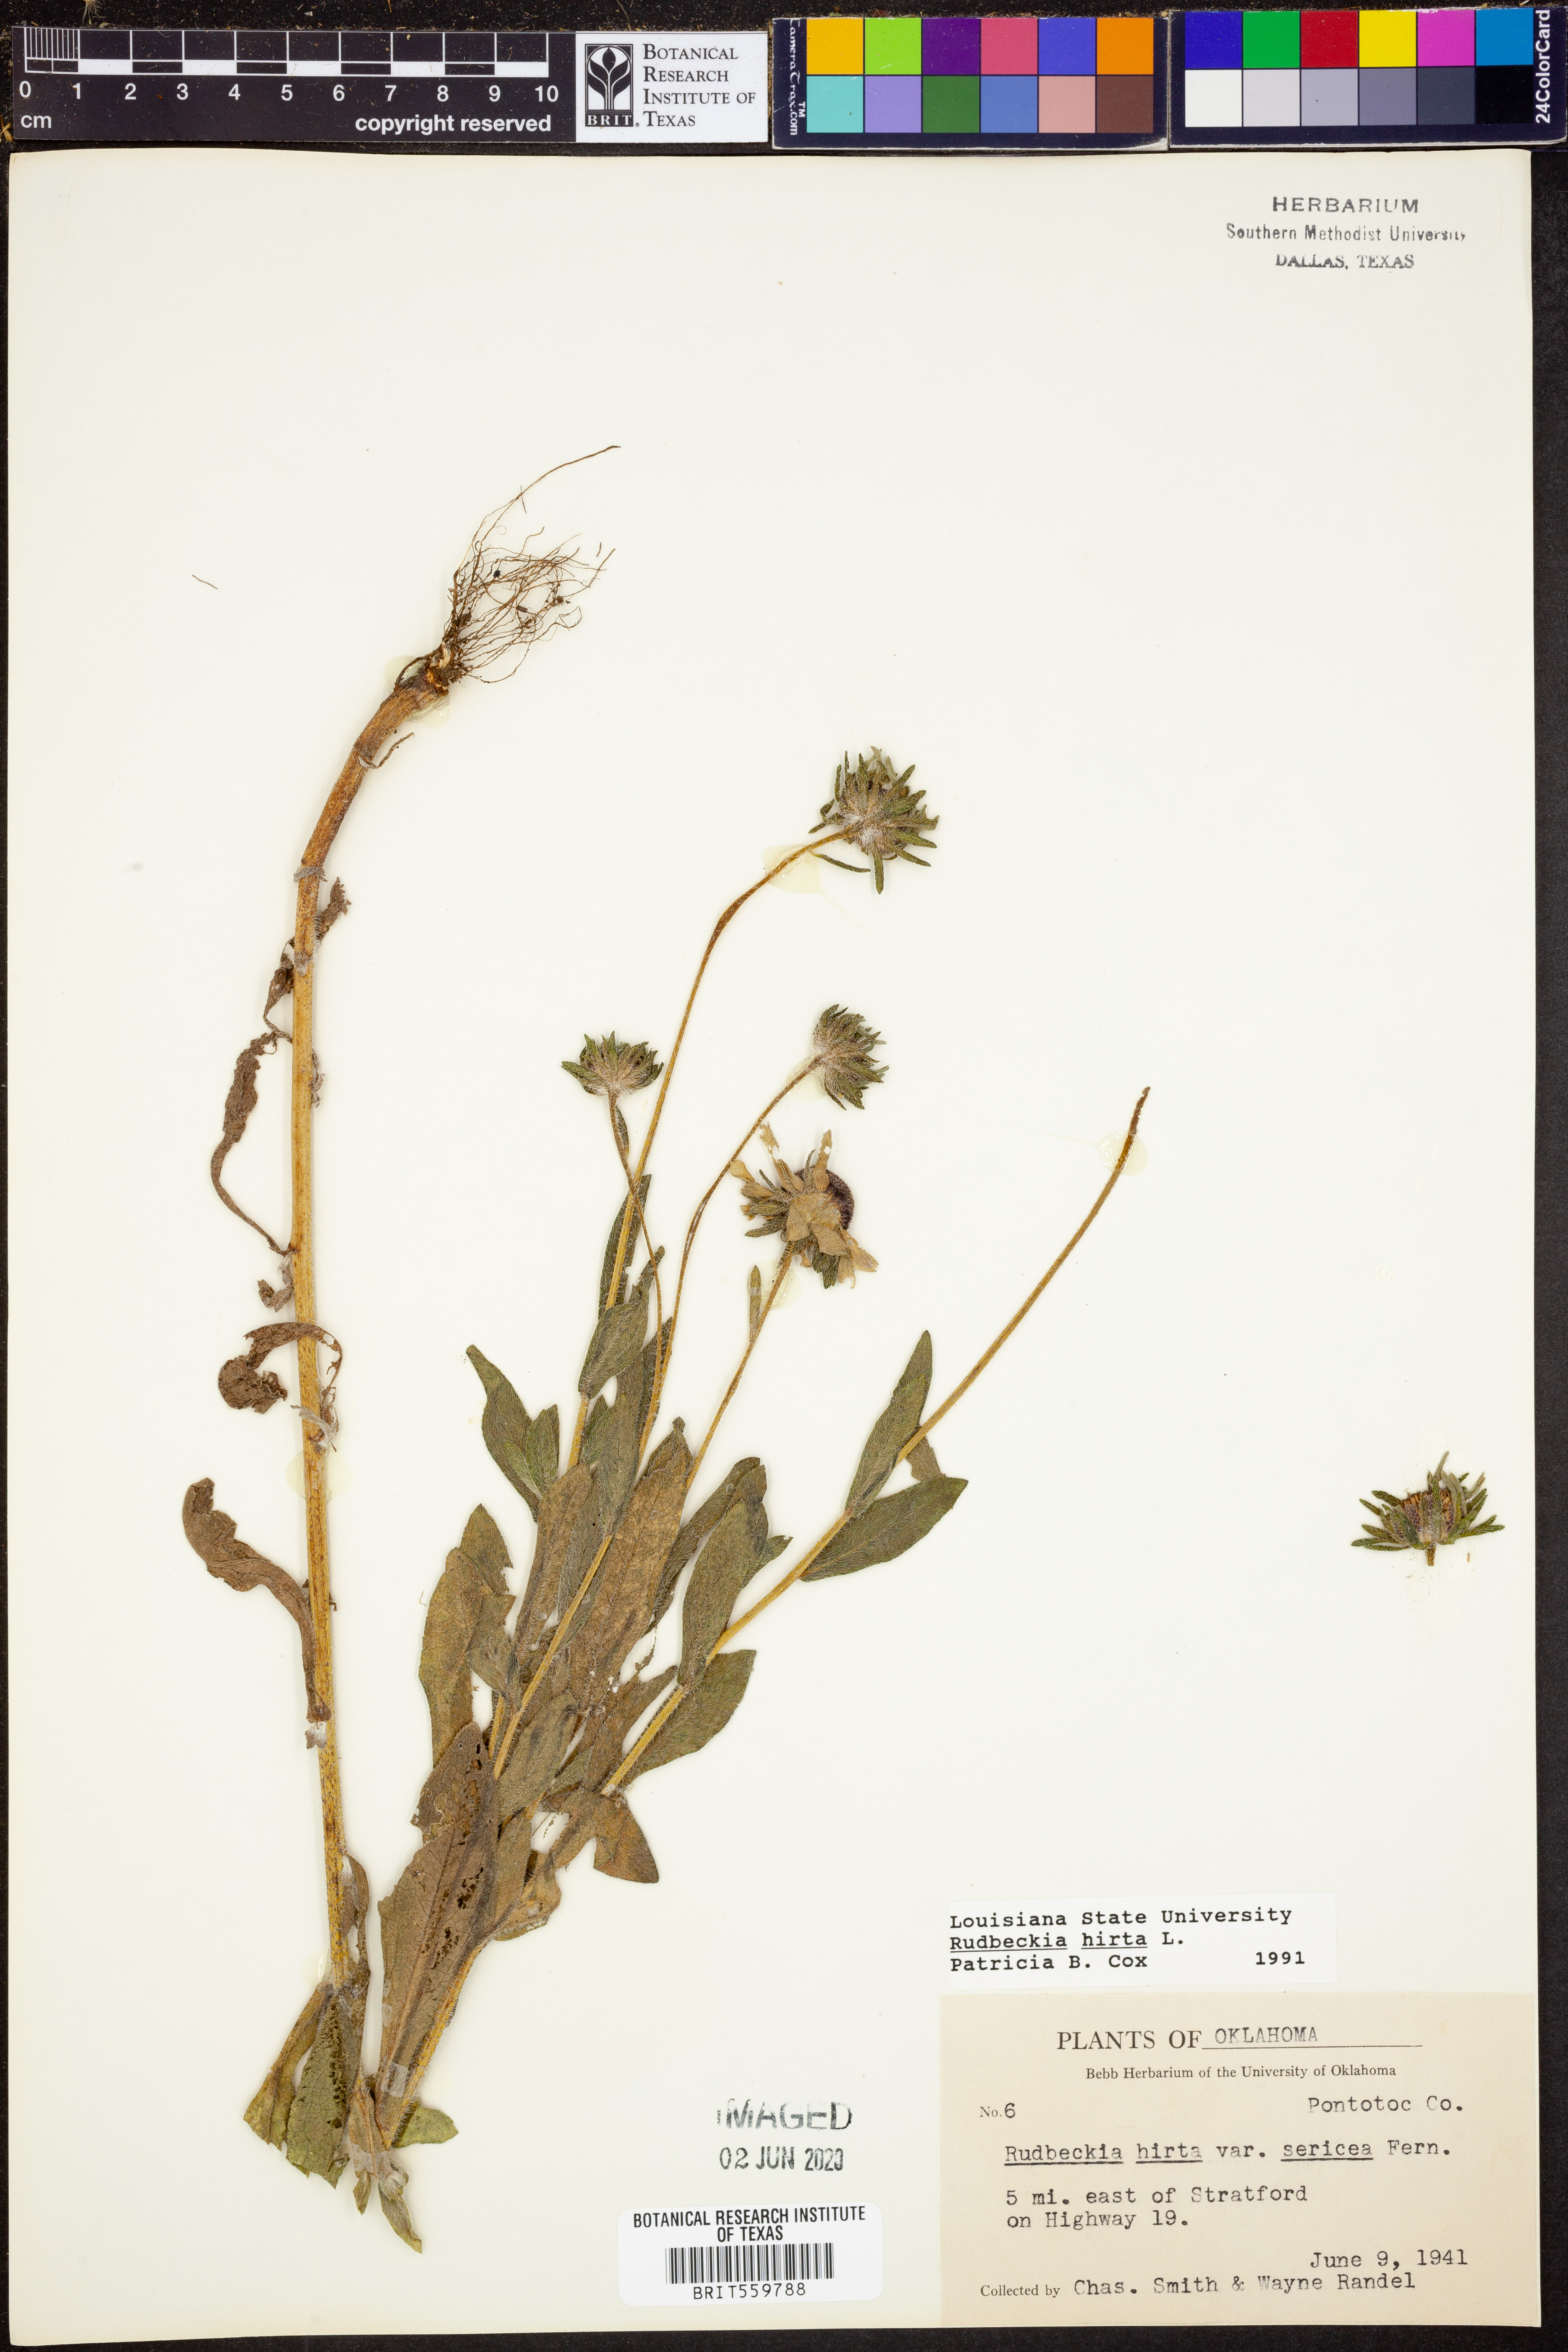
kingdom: Plantae
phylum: Tracheophyta
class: Magnoliopsida
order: Asterales
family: Asteraceae
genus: Rudbeckia
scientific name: Rudbeckia hirta
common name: Black-eyed-susan
